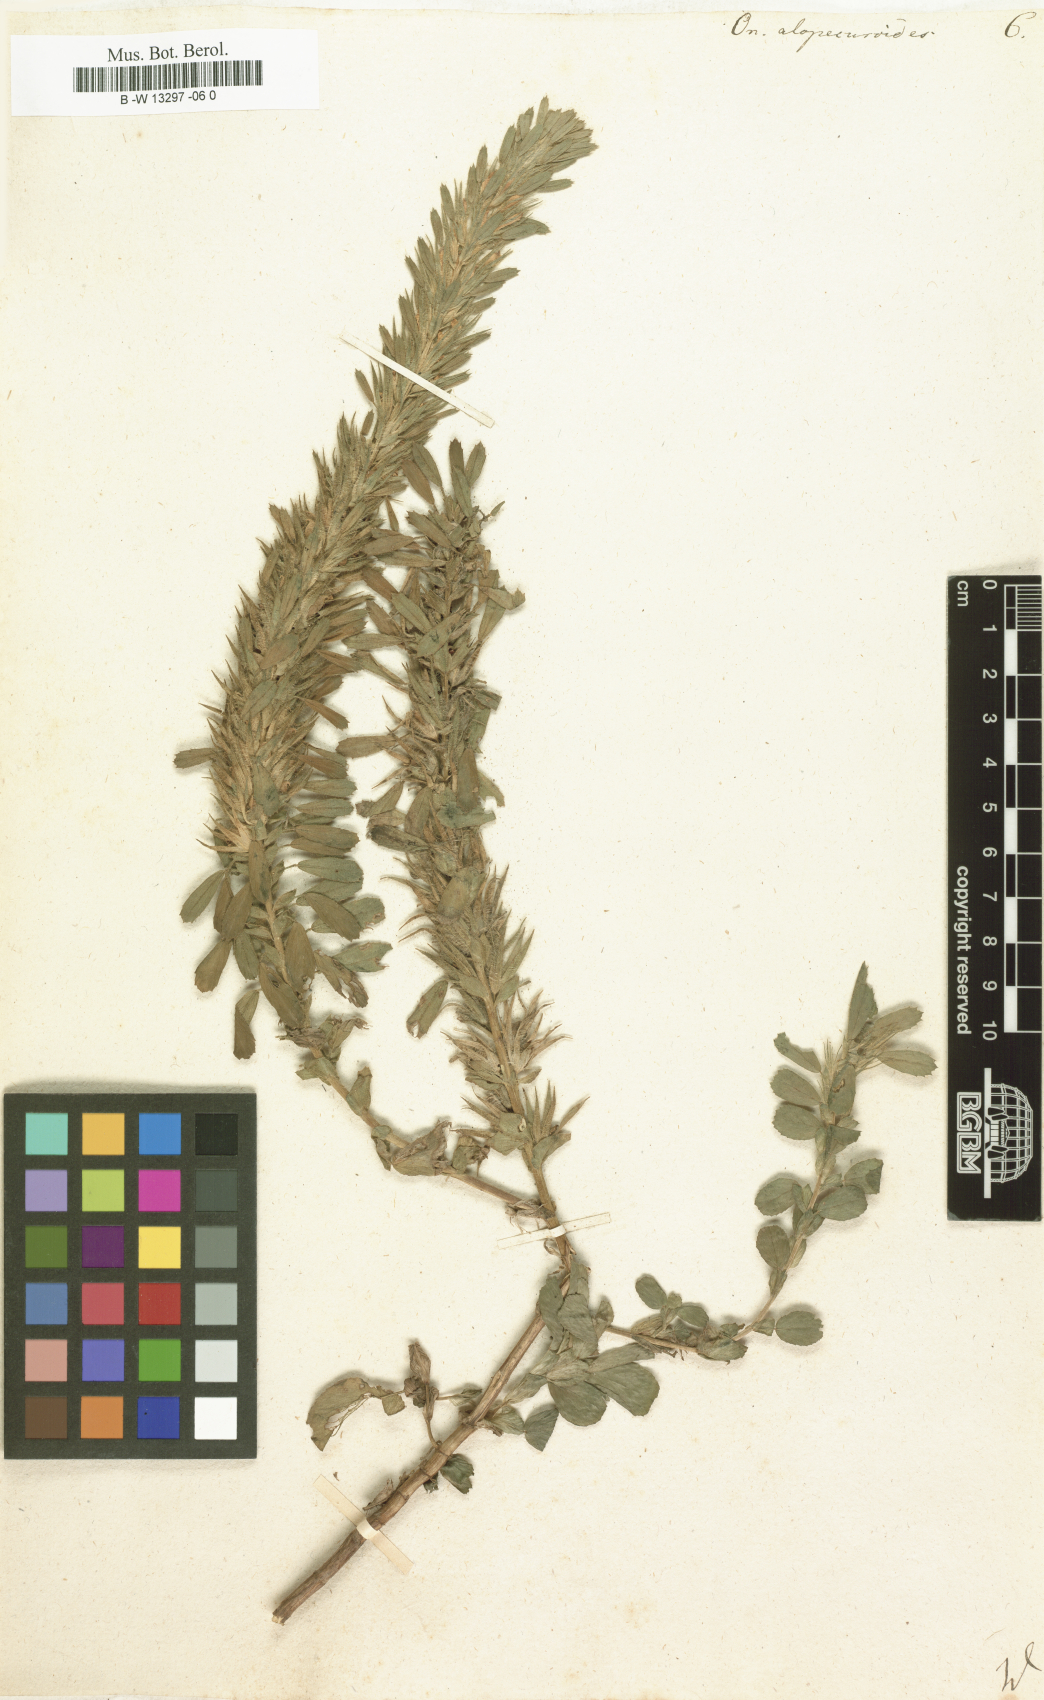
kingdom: Plantae
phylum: Tracheophyta
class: Magnoliopsida
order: Fabales
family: Fabaceae
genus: Ononis
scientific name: Ononis alopecuroides
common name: Salzmann's restharrow
